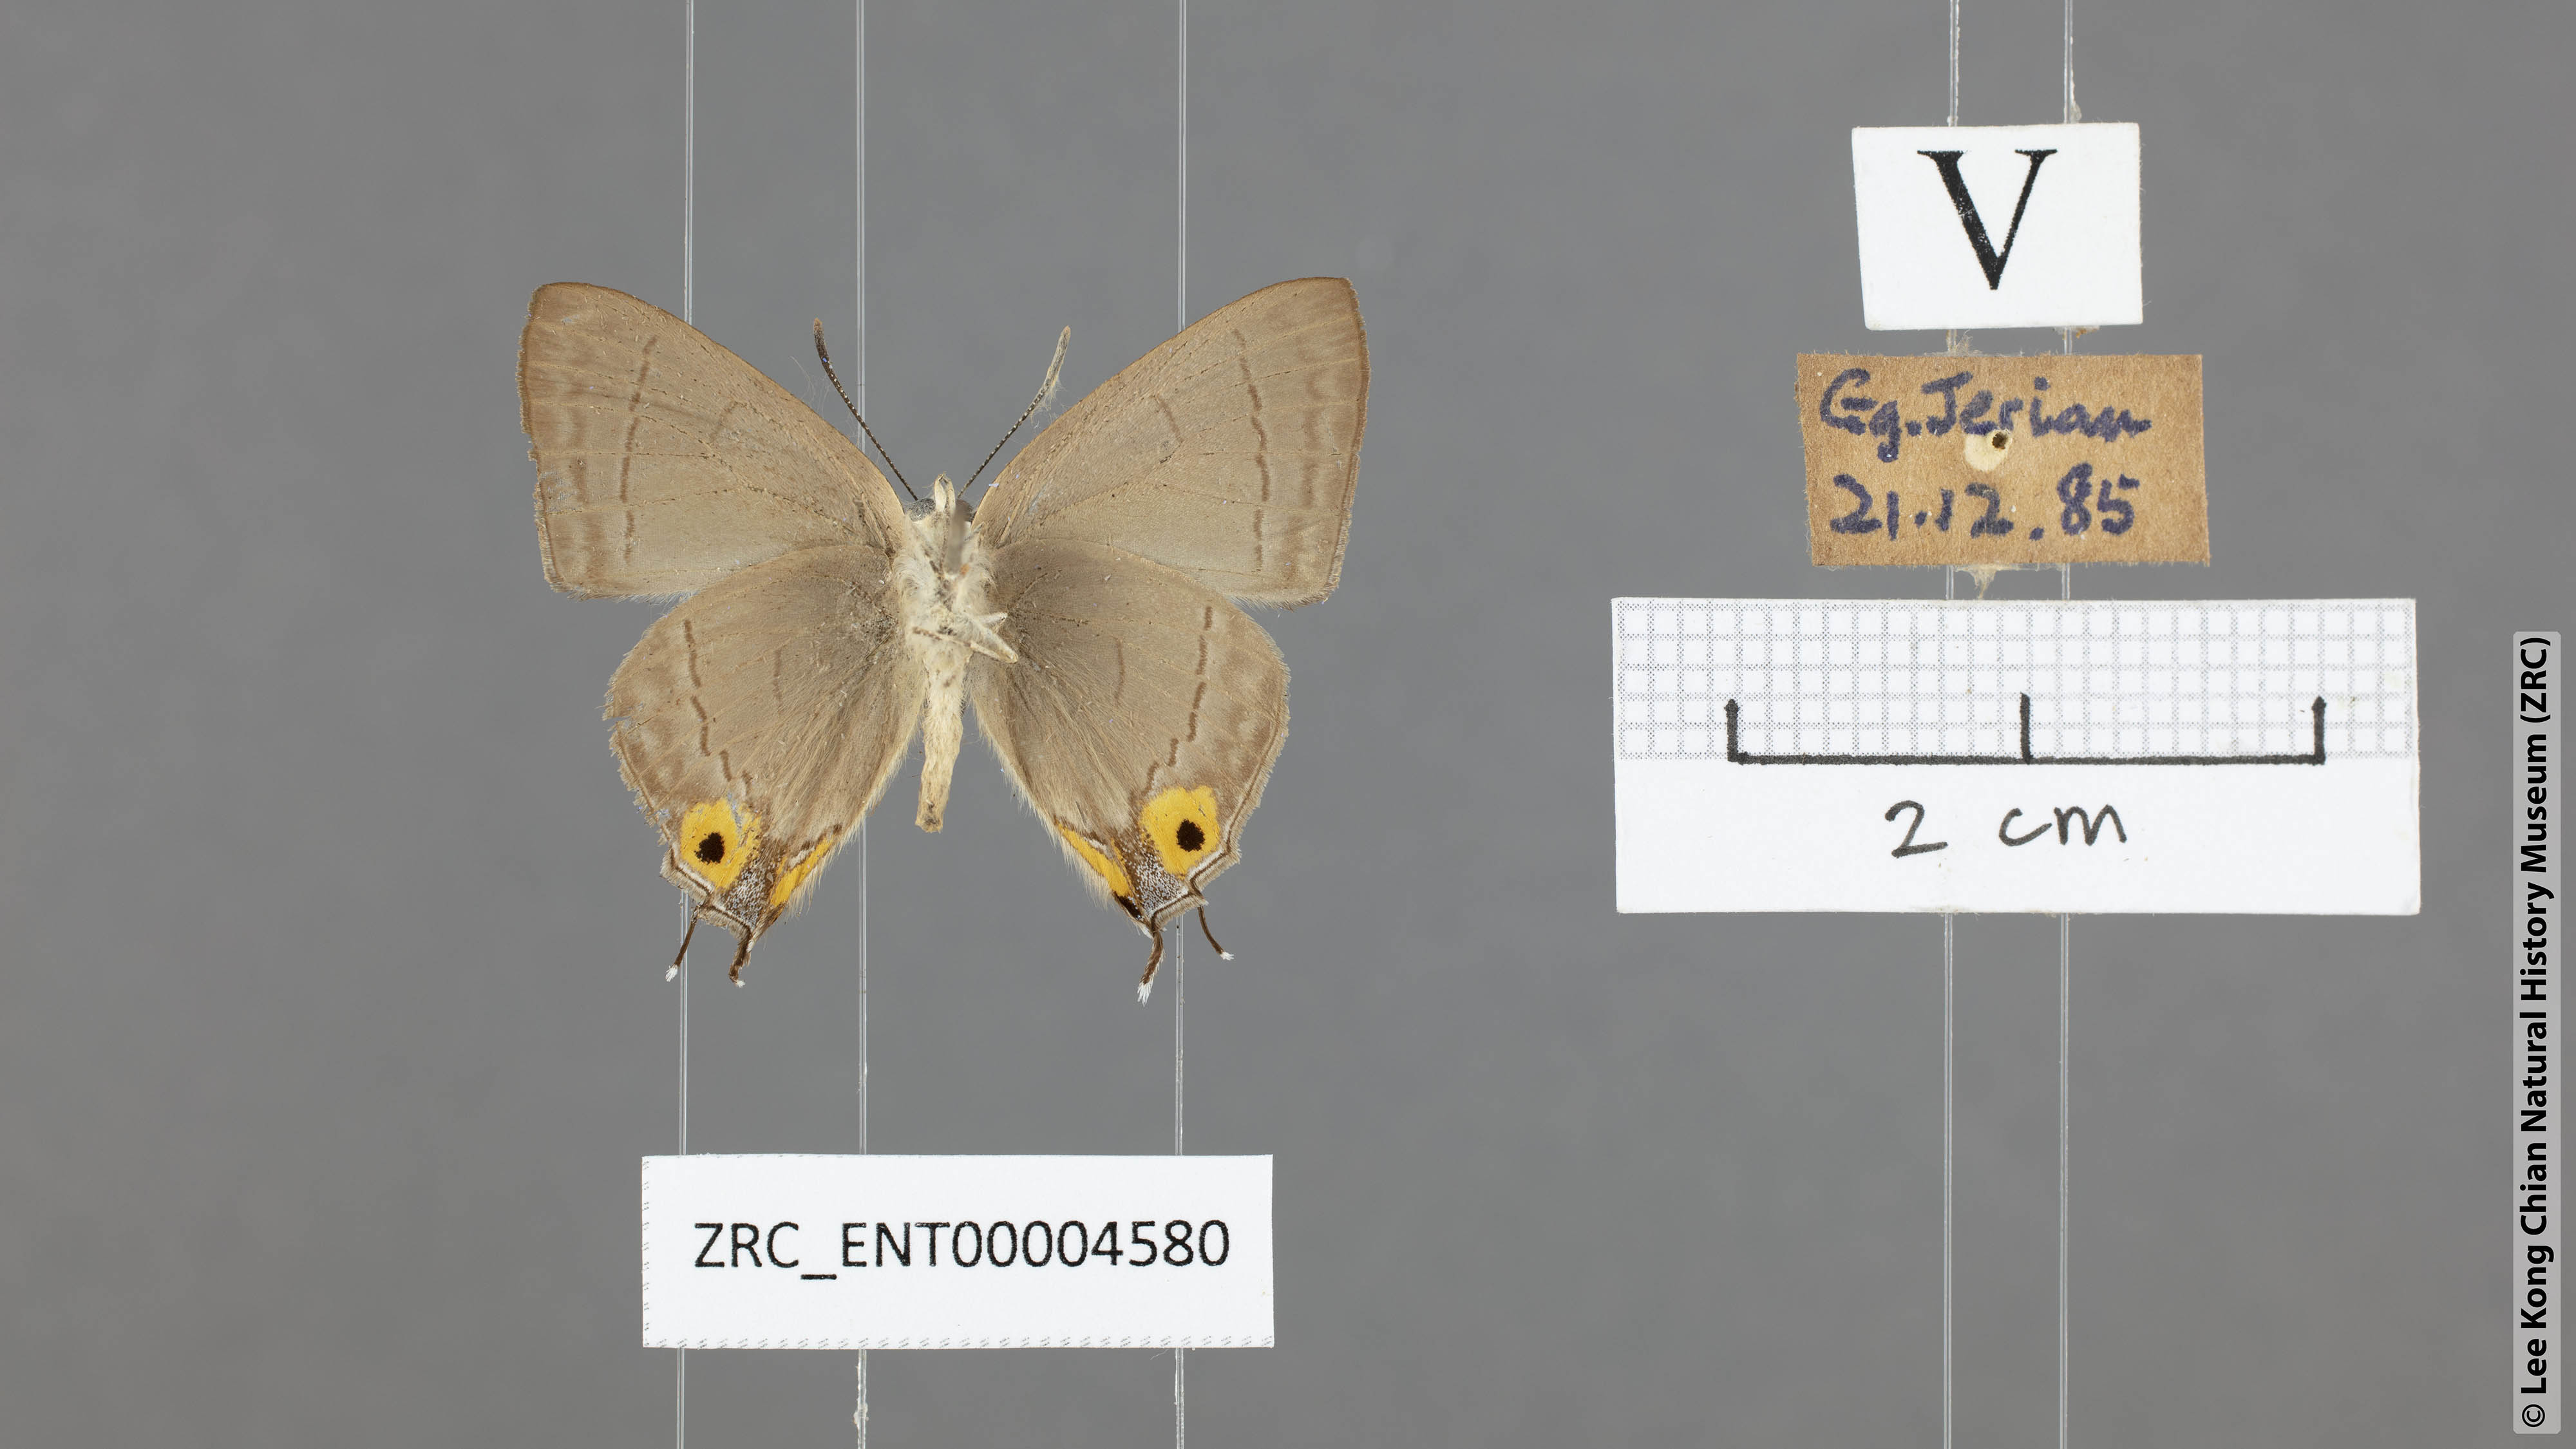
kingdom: Animalia
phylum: Arthropoda
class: Insecta
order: Lepidoptera
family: Lycaenidae
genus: Tajuria
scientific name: Tajuria albiplaga
